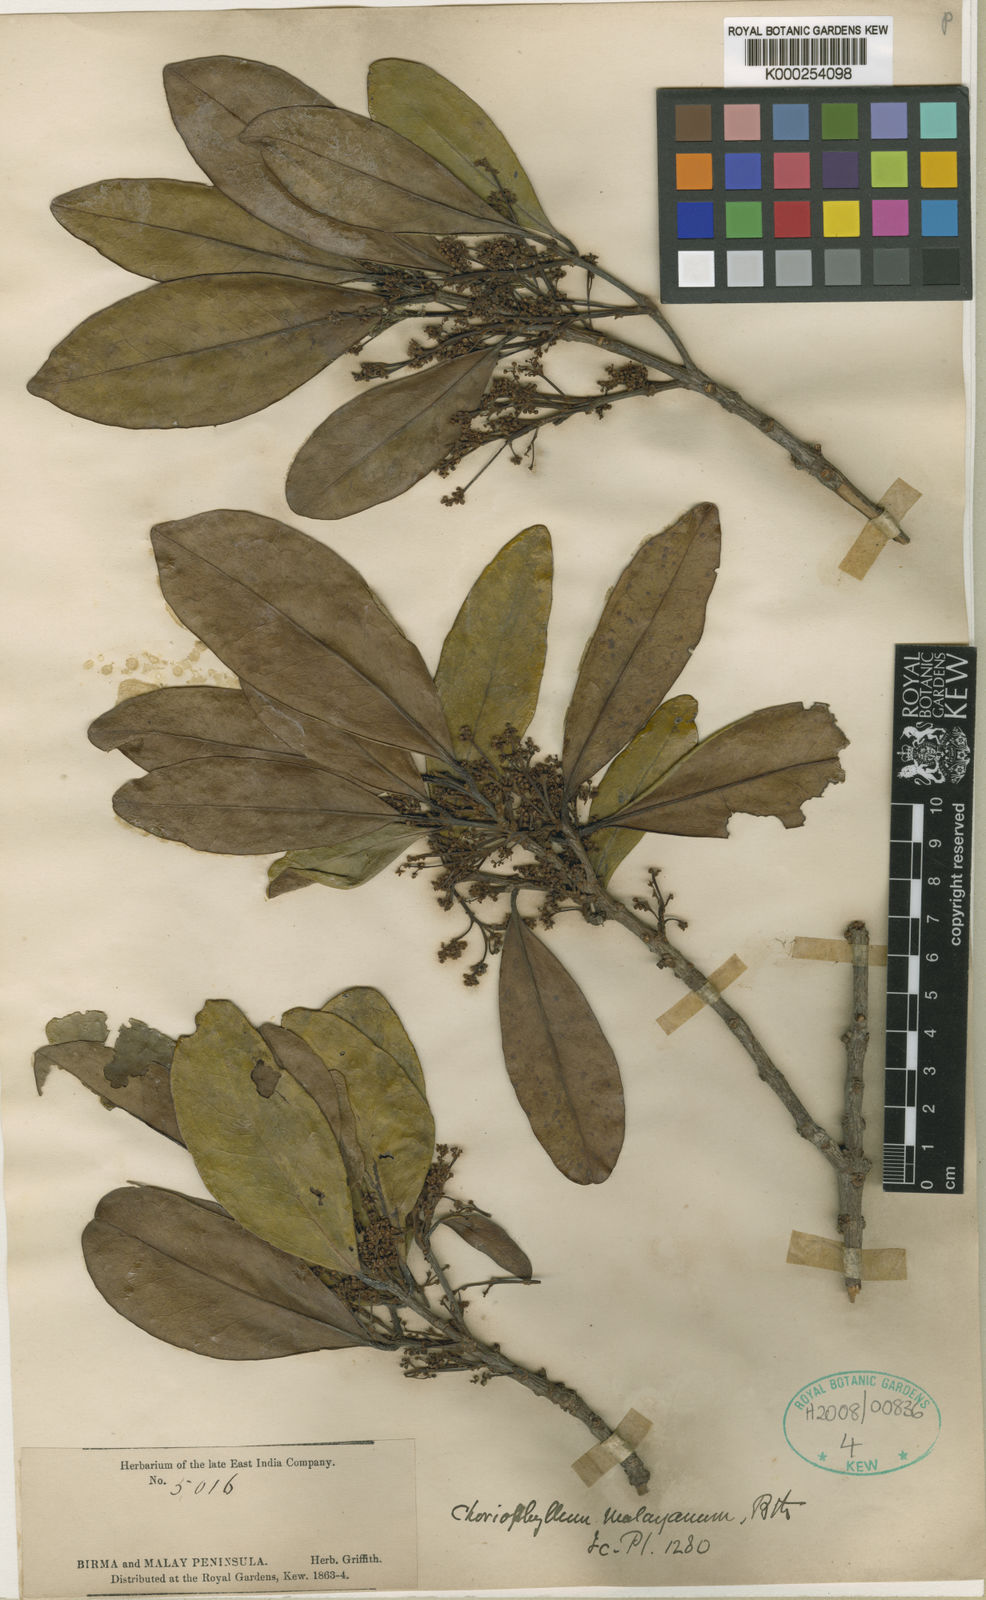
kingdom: Plantae
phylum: Tracheophyta
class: Magnoliopsida
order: Malpighiales
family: Picrodendraceae
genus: Austrobuxus
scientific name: Austrobuxus nitidus
